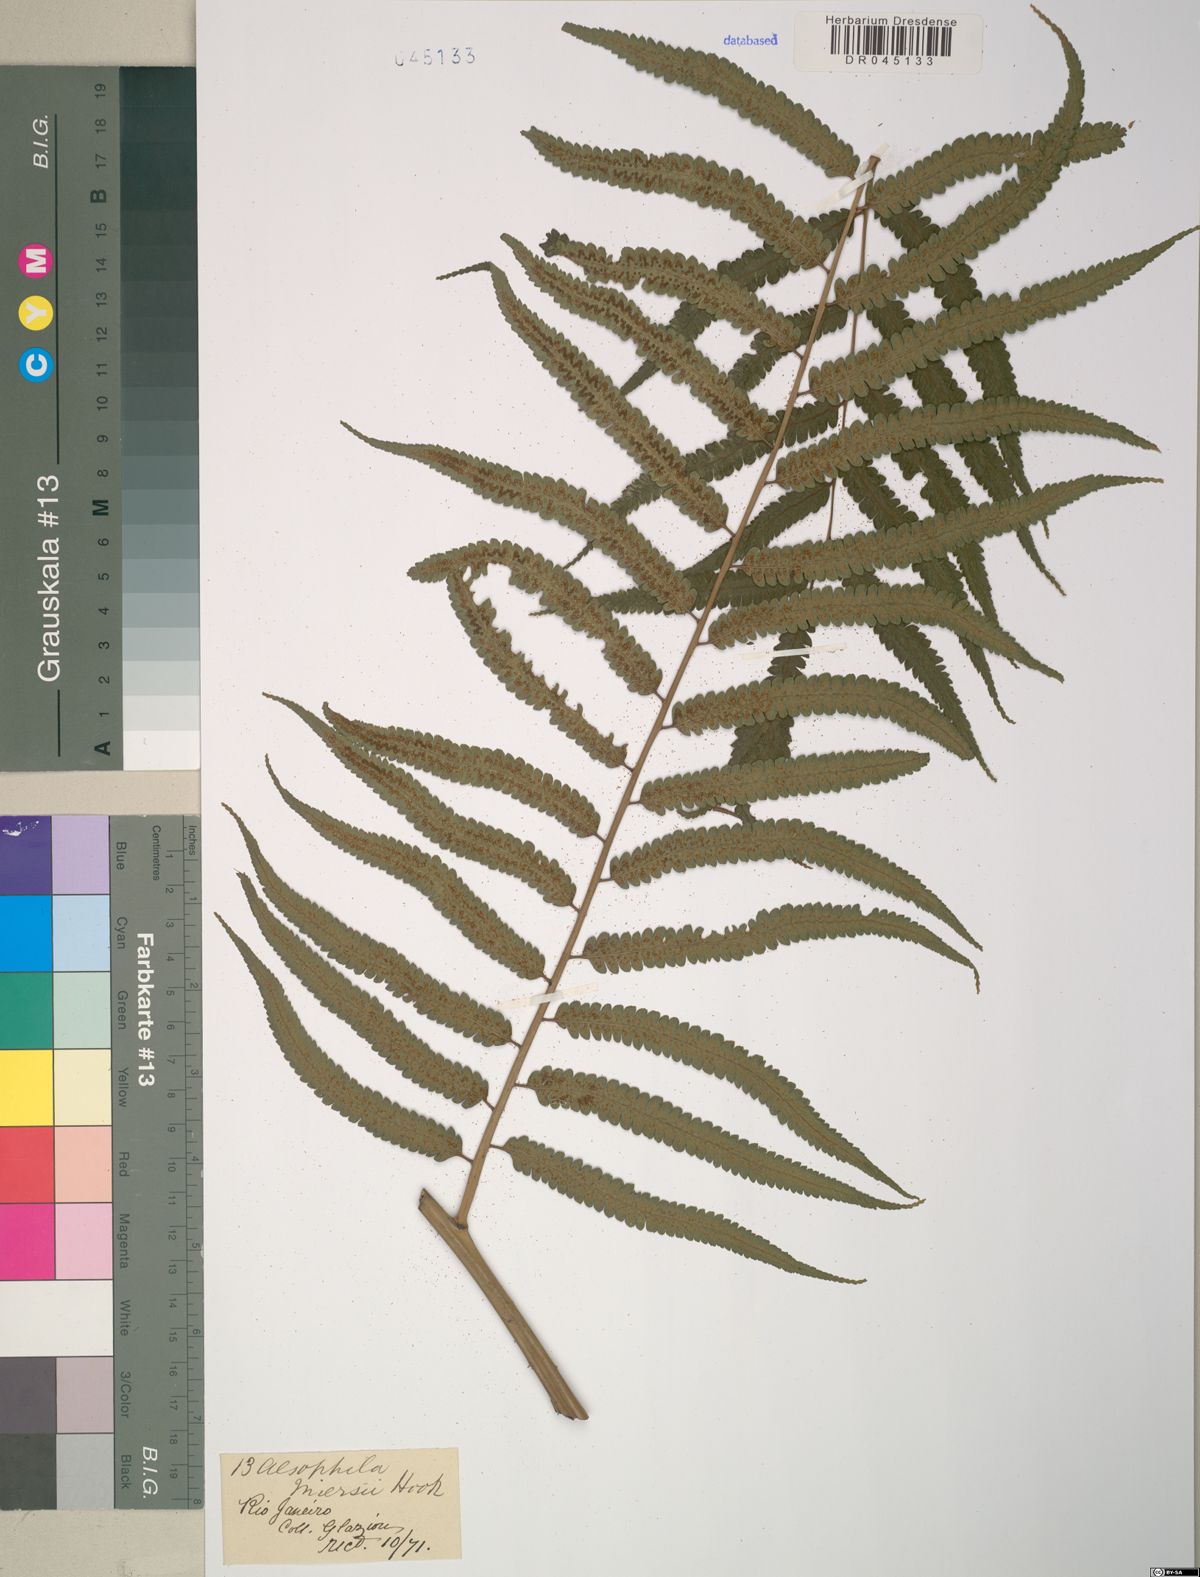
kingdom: Plantae
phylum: Tracheophyta
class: Polypodiopsida
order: Cyatheales
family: Cyatheaceae
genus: Cyathea
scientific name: Cyathea miersii
